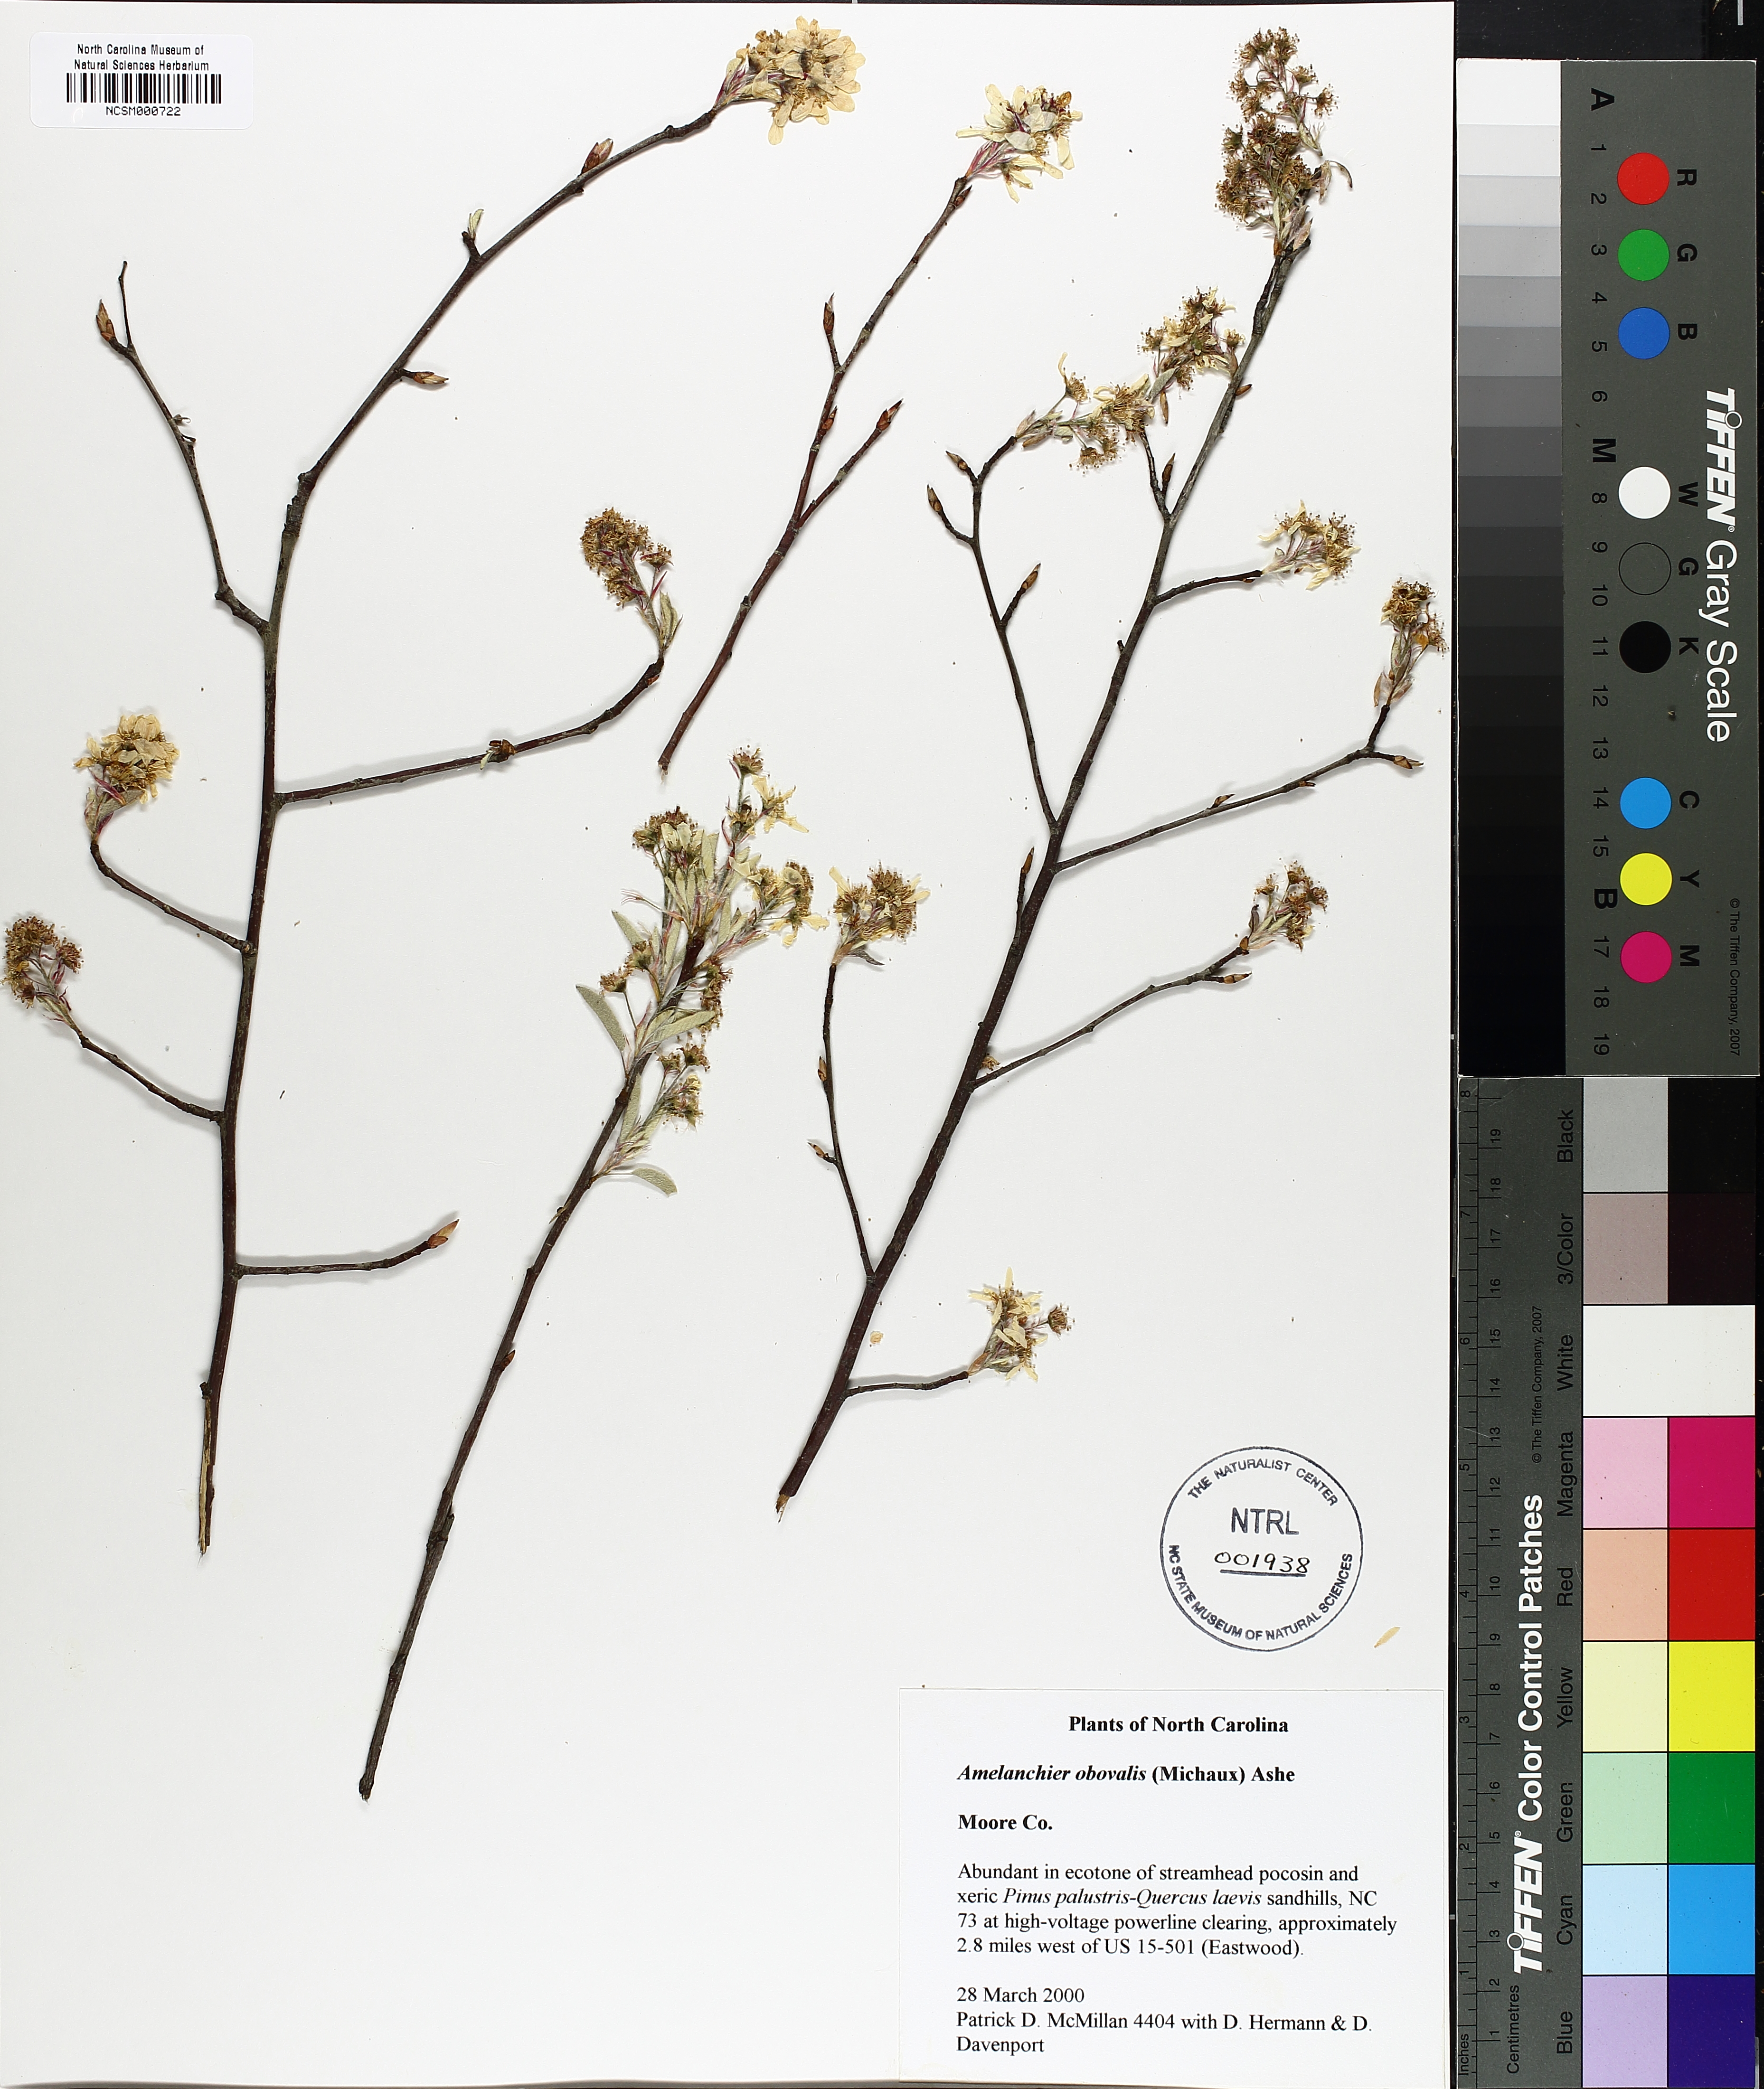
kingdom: Plantae
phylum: Tracheophyta
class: Magnoliopsida
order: Rosales
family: Rosaceae
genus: Amelanchier
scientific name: Amelanchier obovalis
